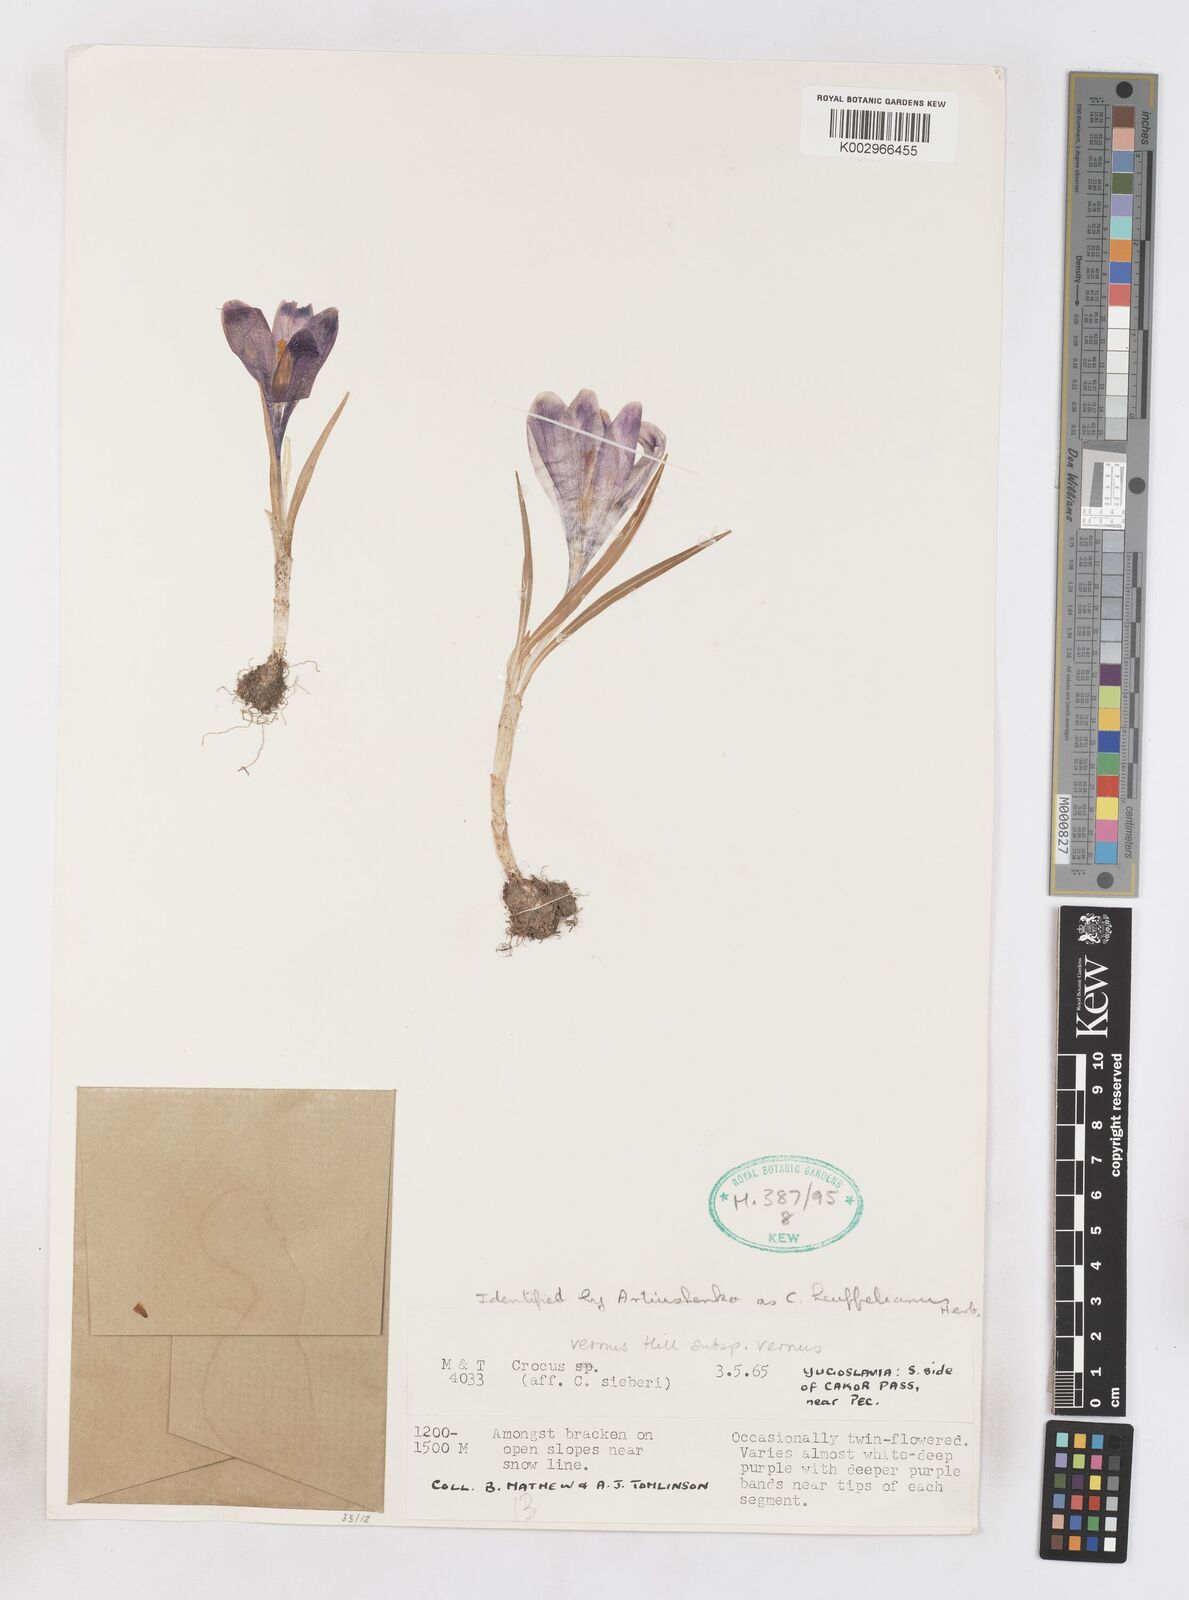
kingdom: Plantae
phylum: Tracheophyta
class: Liliopsida
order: Asparagales
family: Iridaceae
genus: Crocus
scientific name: Crocus vernus
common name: Spring crocus
